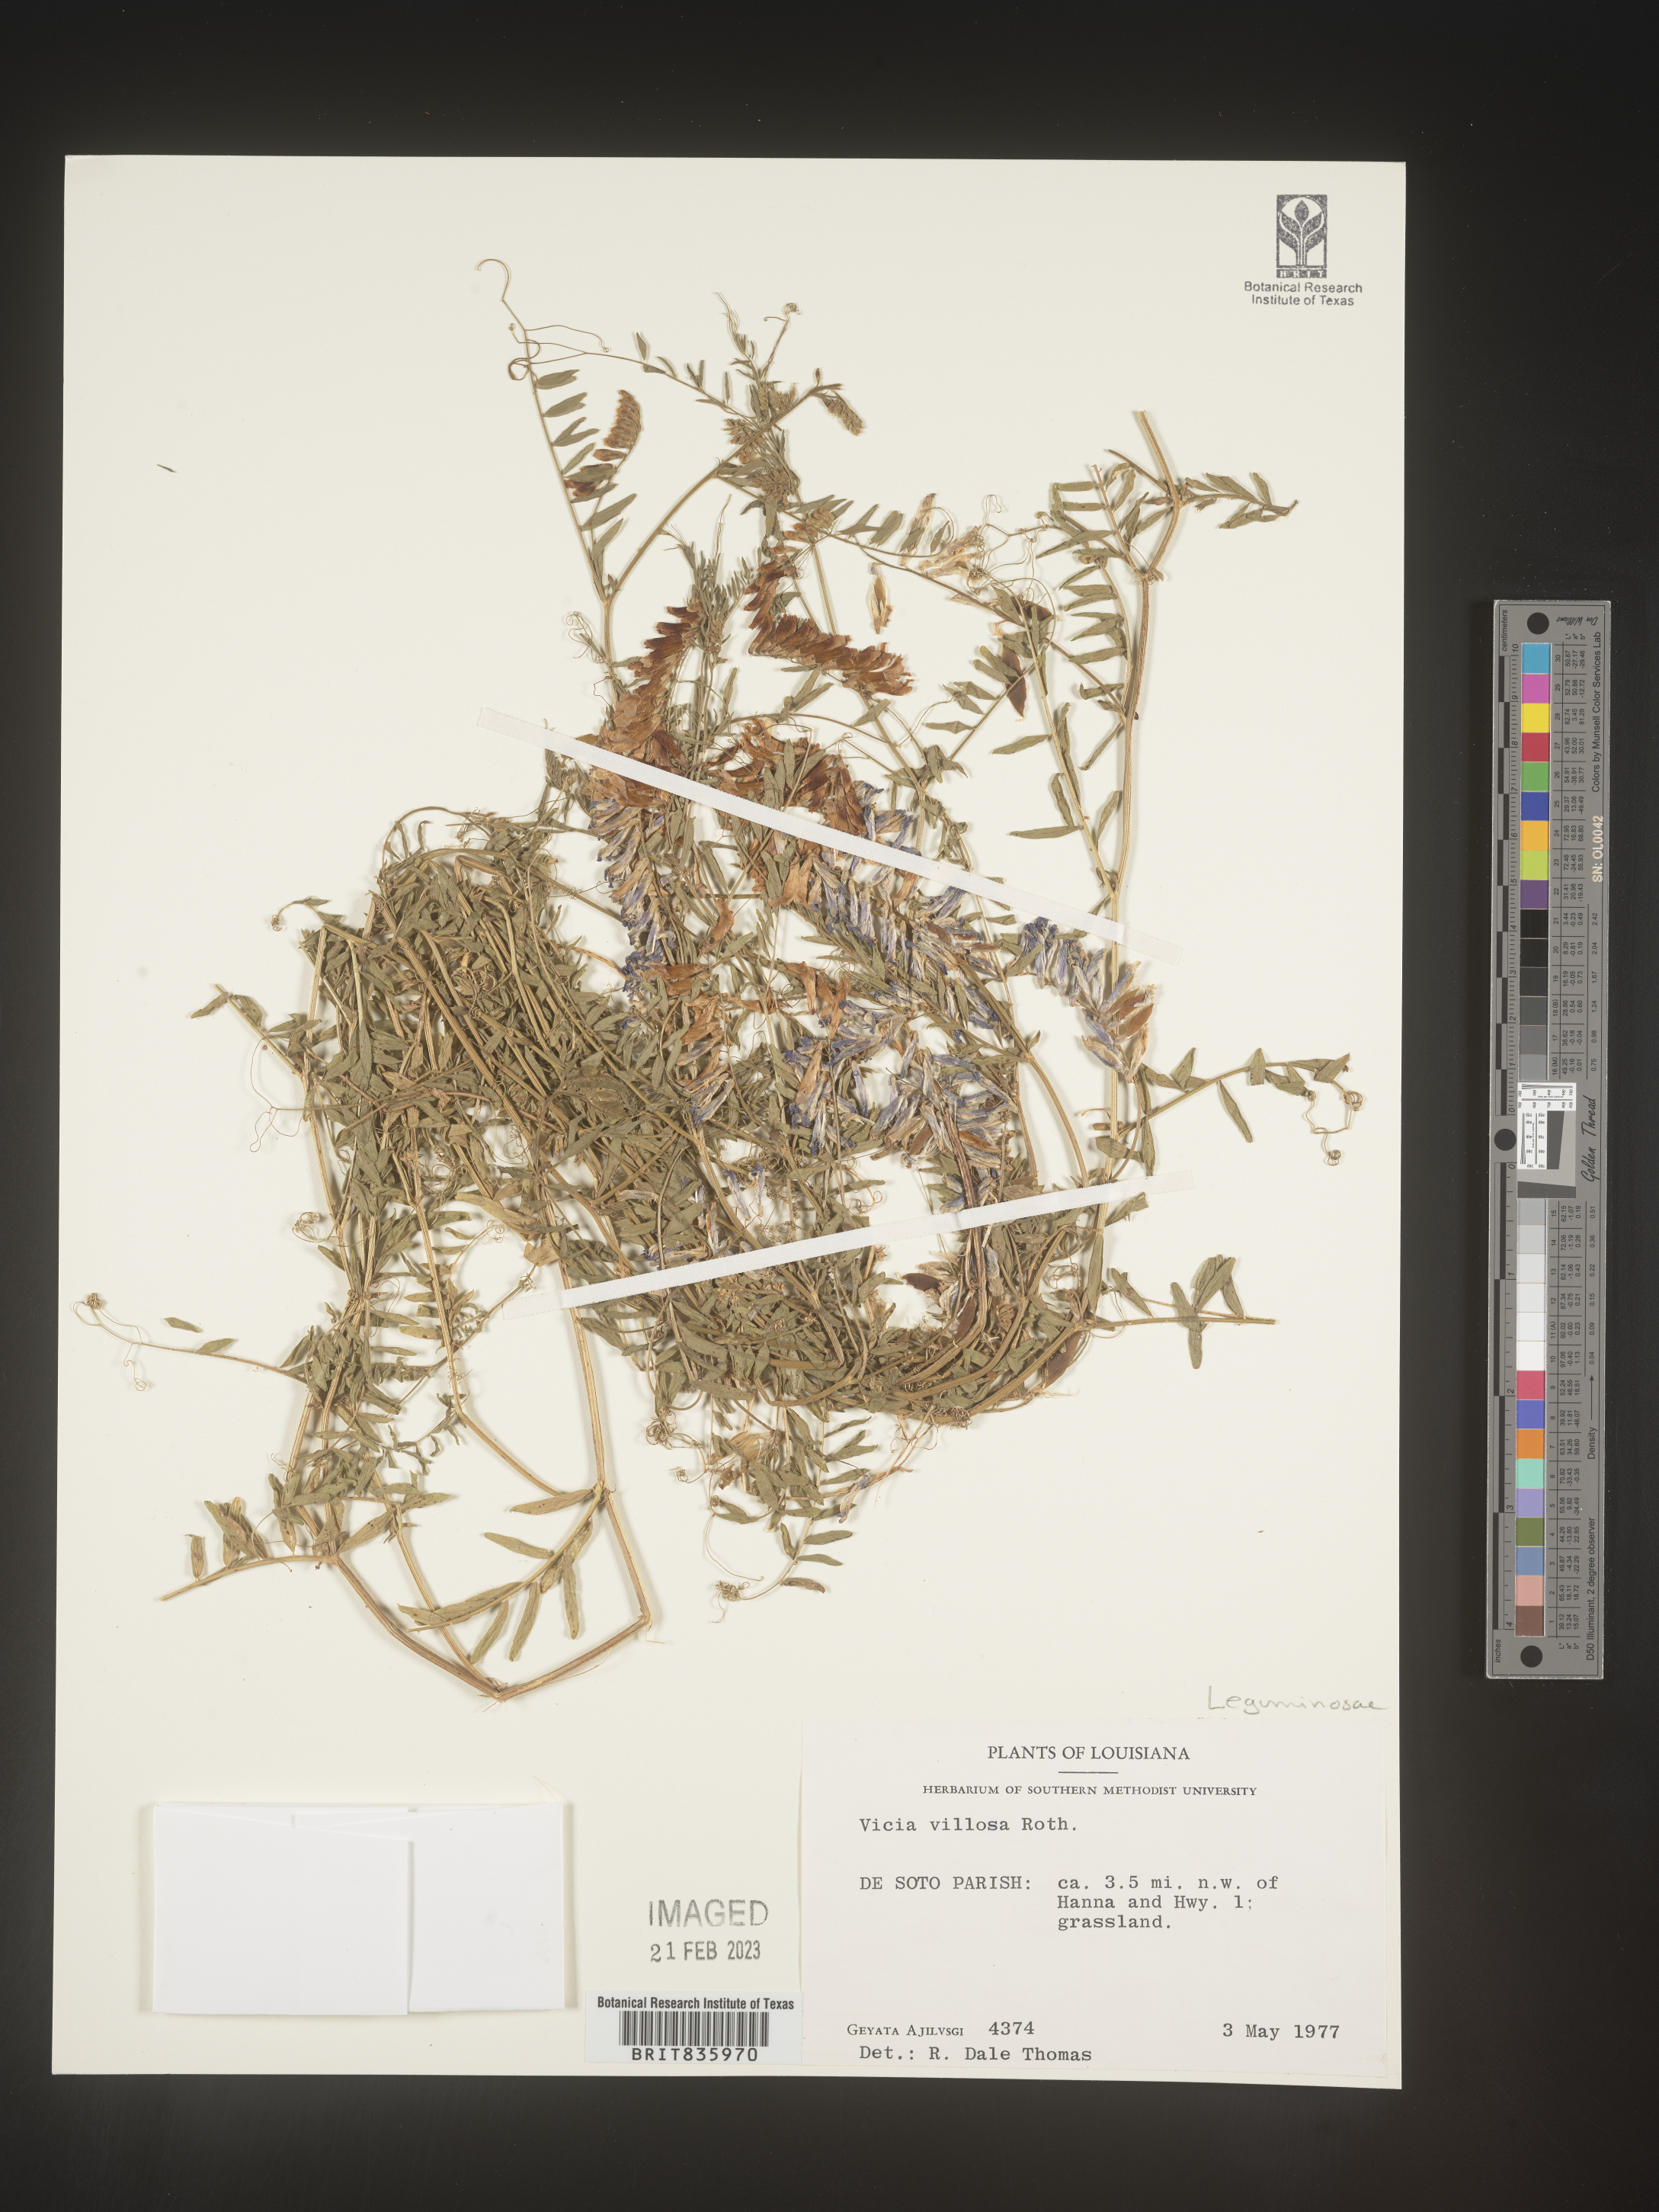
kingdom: Plantae
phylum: Tracheophyta
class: Magnoliopsida
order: Fabales
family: Fabaceae
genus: Vicia
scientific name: Vicia villosa
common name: Fodder vetch
